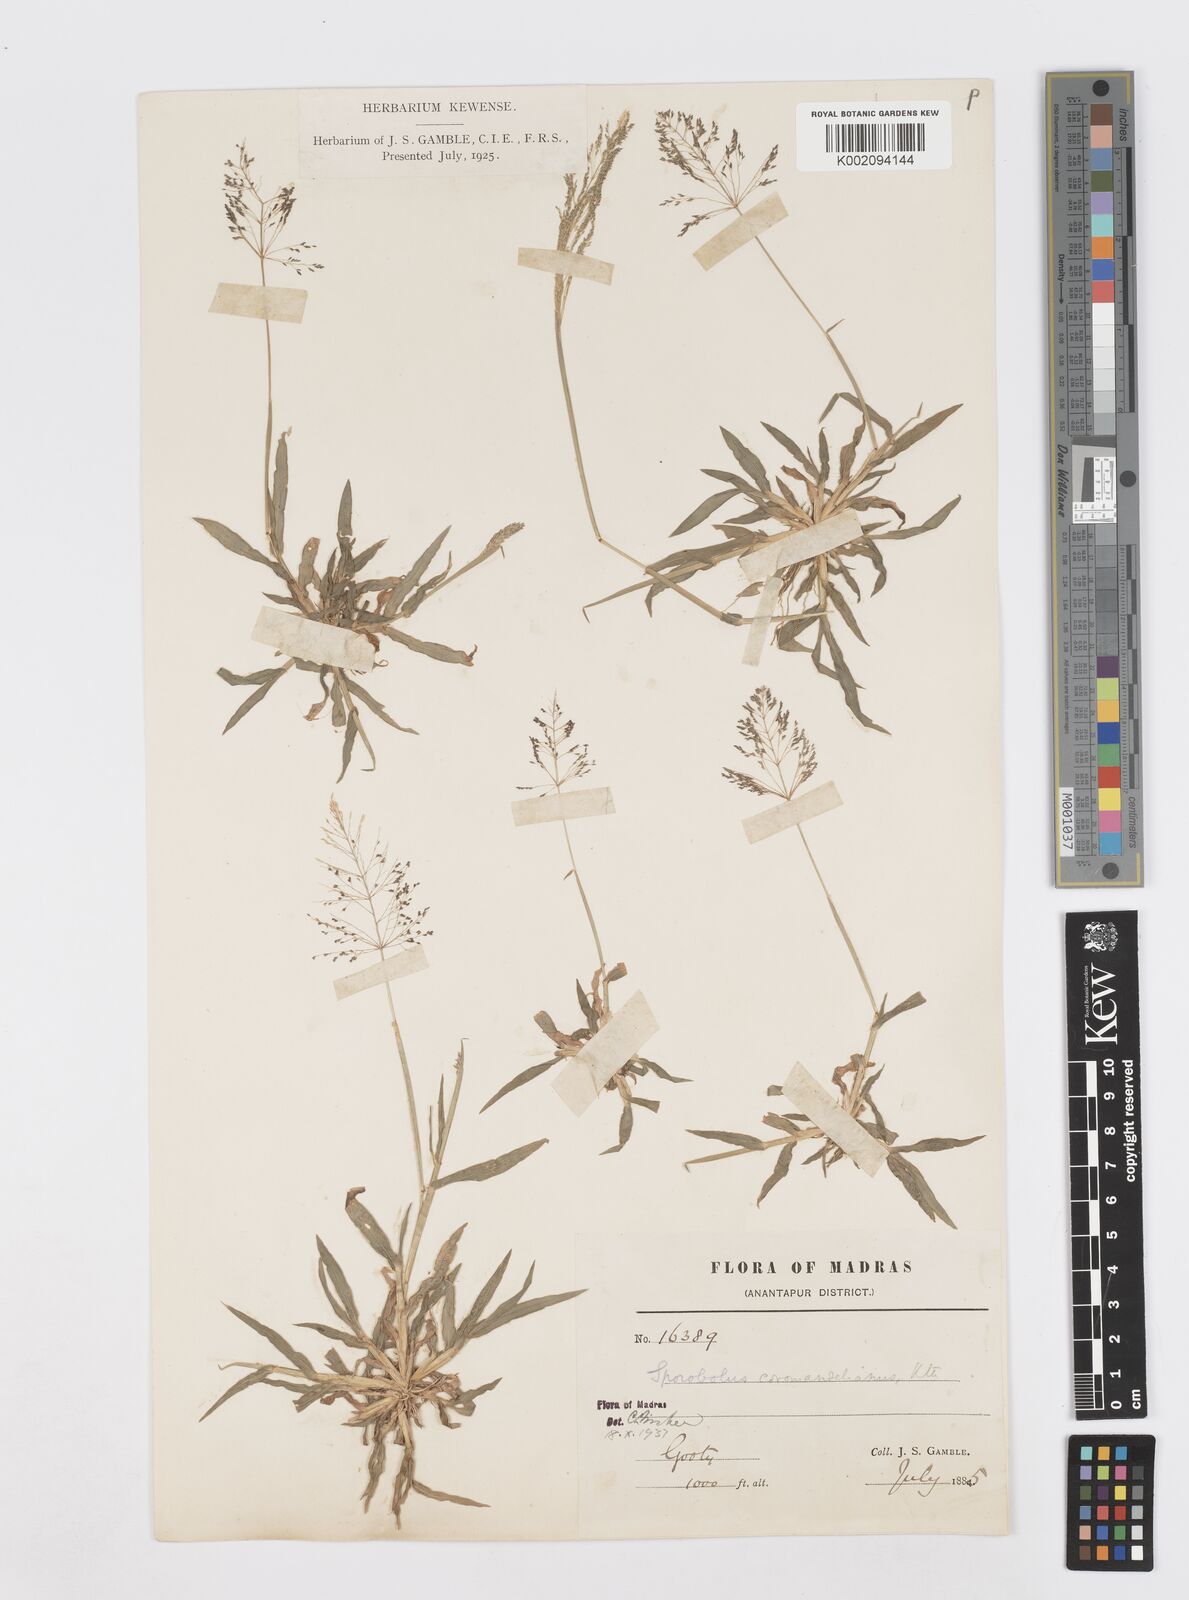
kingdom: Plantae
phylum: Tracheophyta
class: Liliopsida
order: Poales
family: Poaceae
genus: Sporobolus
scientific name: Sporobolus coromandelianus
